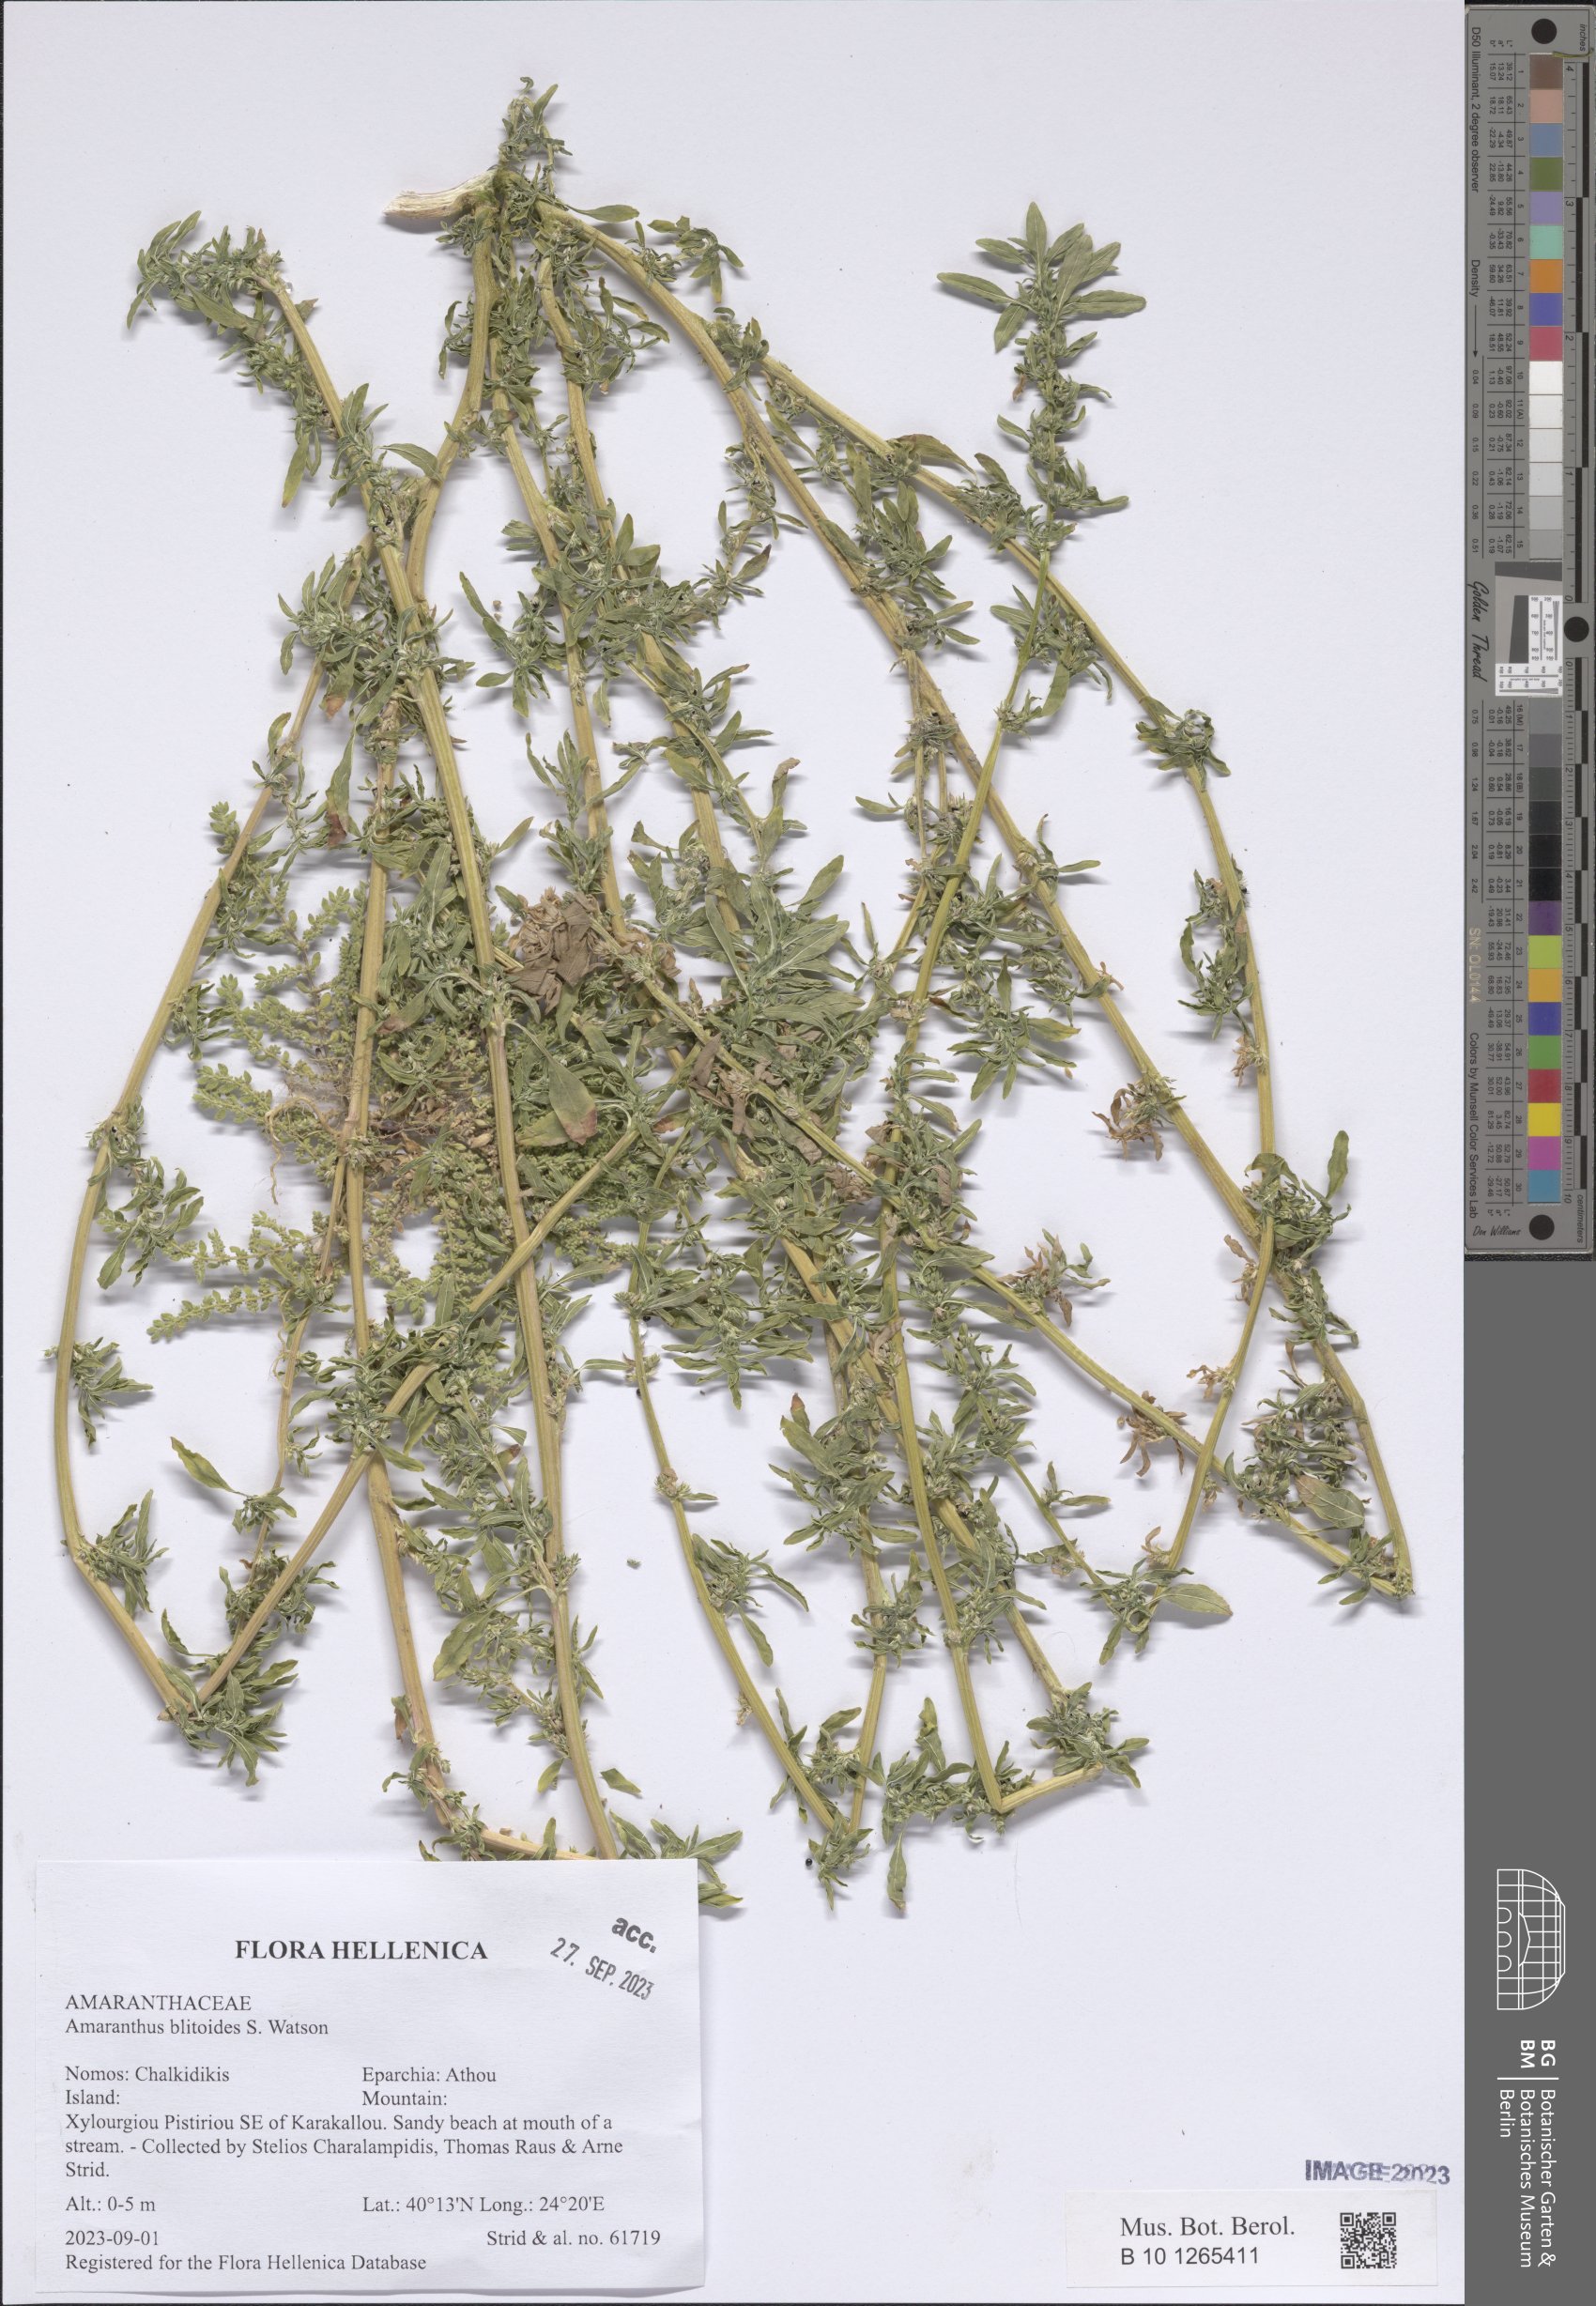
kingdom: Plantae
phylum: Tracheophyta
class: Magnoliopsida
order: Caryophyllales
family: Amaranthaceae
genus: Amaranthus
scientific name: Amaranthus blitoides
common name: Prostrate pigweed
